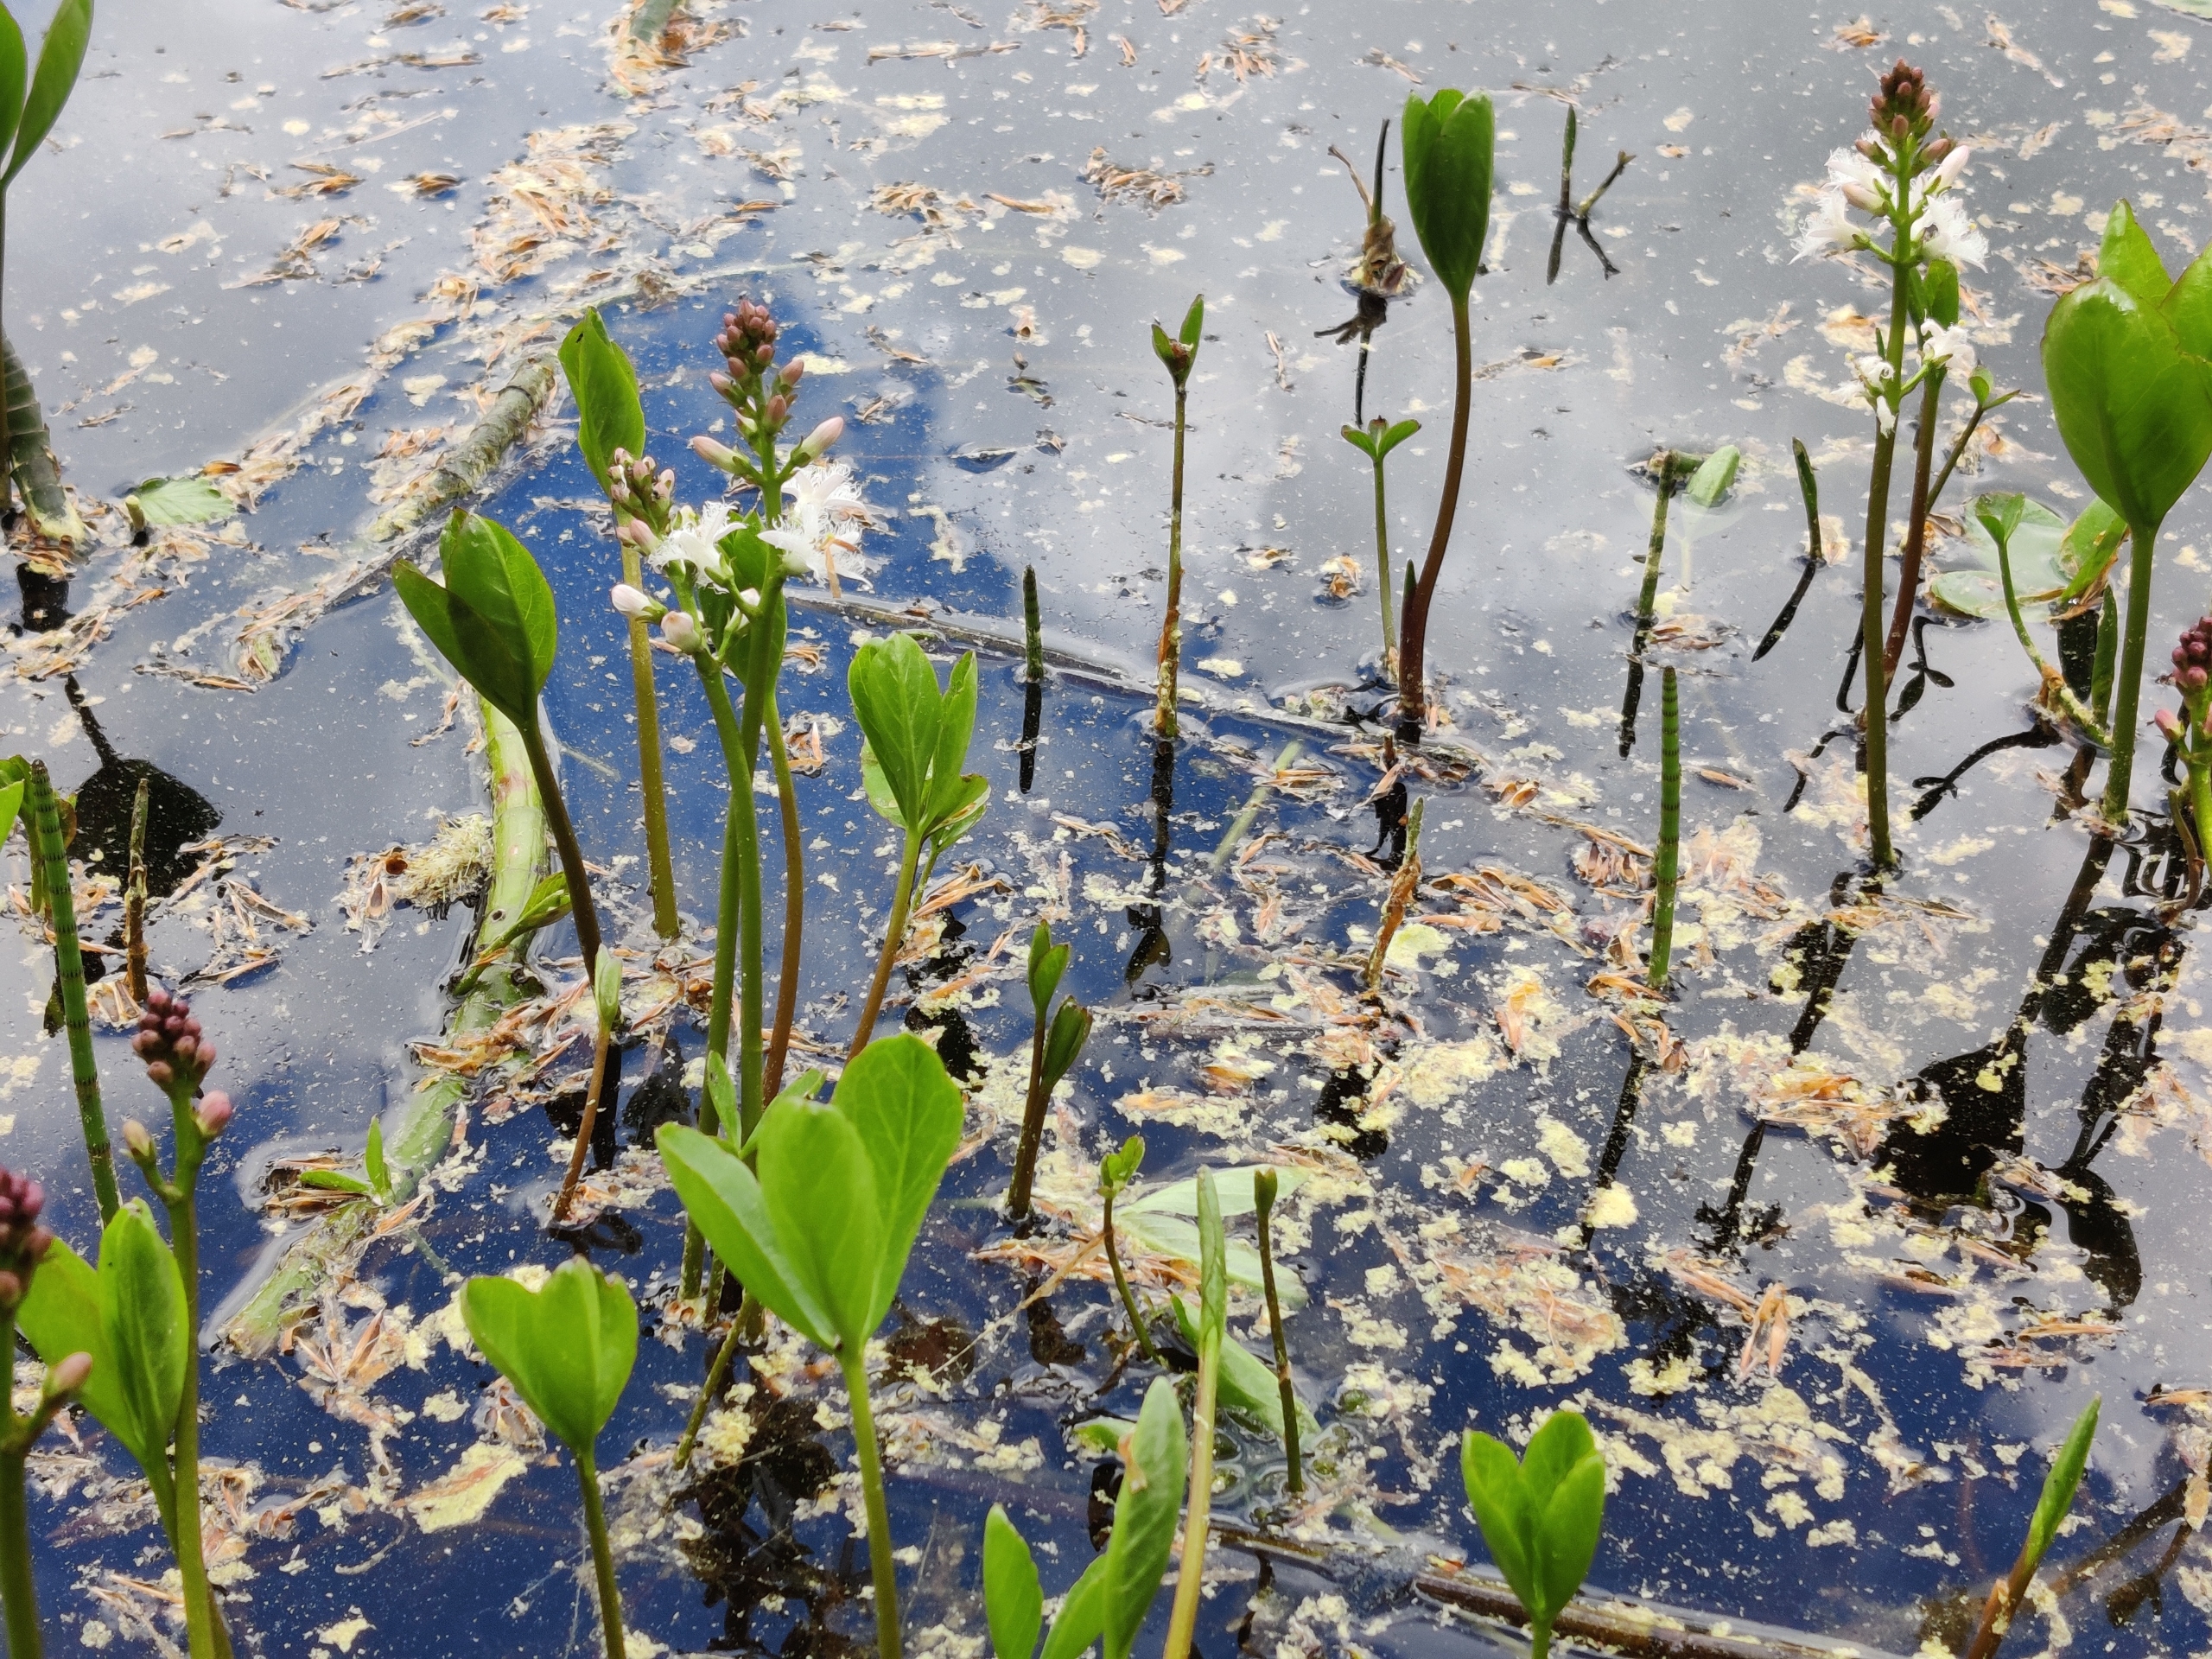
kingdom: Plantae
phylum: Tracheophyta
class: Magnoliopsida
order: Asterales
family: Menyanthaceae
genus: Menyanthes
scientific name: Menyanthes trifoliata
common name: Bukkeblad
